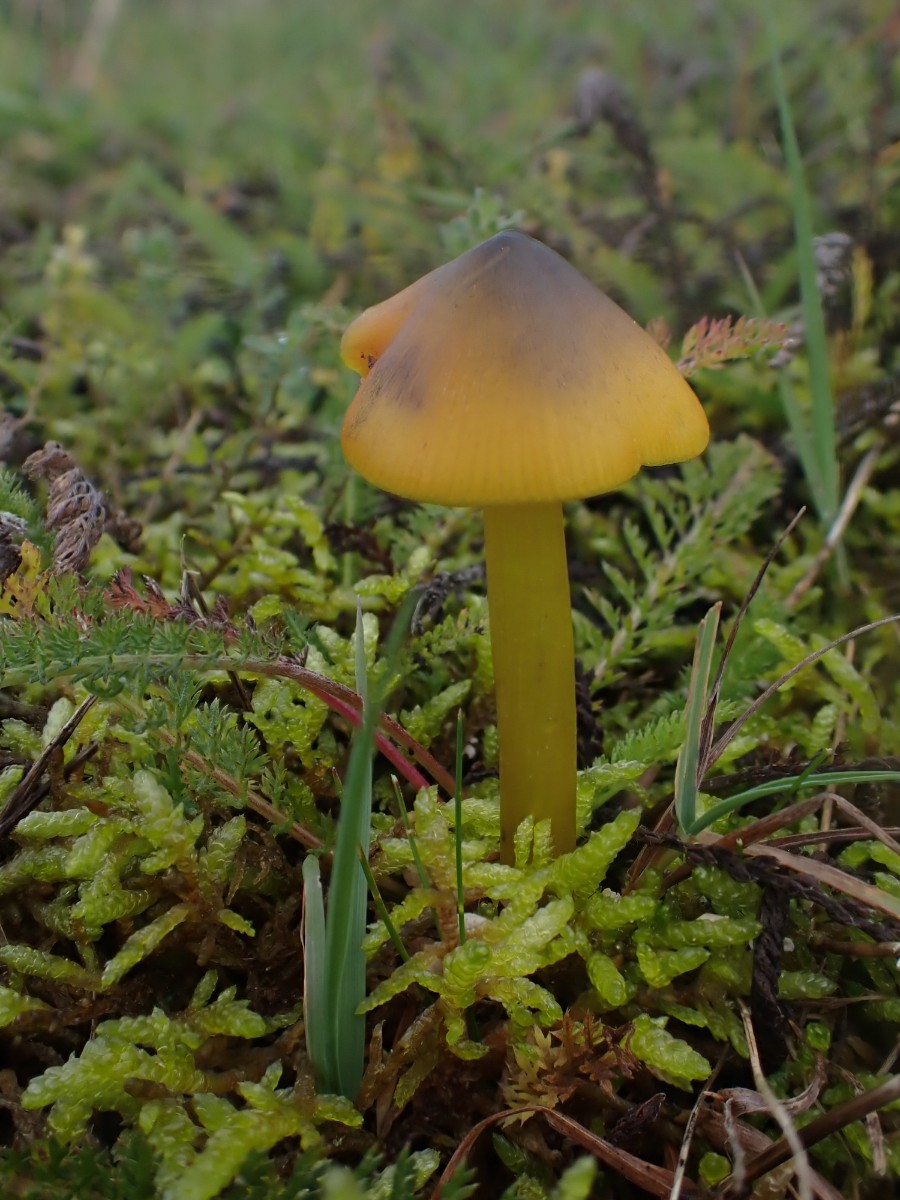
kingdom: Fungi
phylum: Basidiomycota
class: Agaricomycetes
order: Agaricales
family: Hygrophoraceae
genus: Hygrocybe
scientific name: Hygrocybe conica
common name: kegle-vokshat
